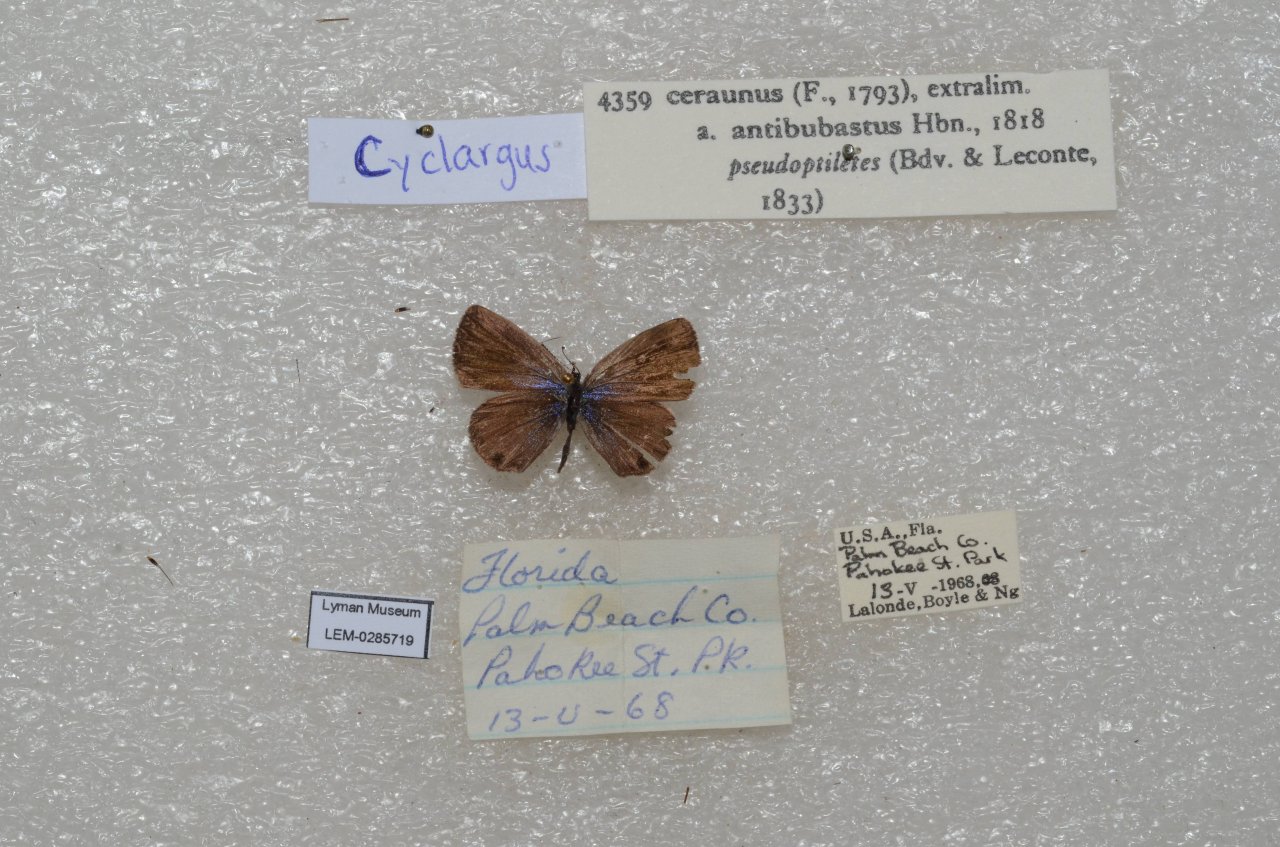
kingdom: Animalia
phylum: Arthropoda
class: Insecta
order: Lepidoptera
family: Lycaenidae
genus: Hemiargus
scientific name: Hemiargus ceraunus
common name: Ceraunus Blue
